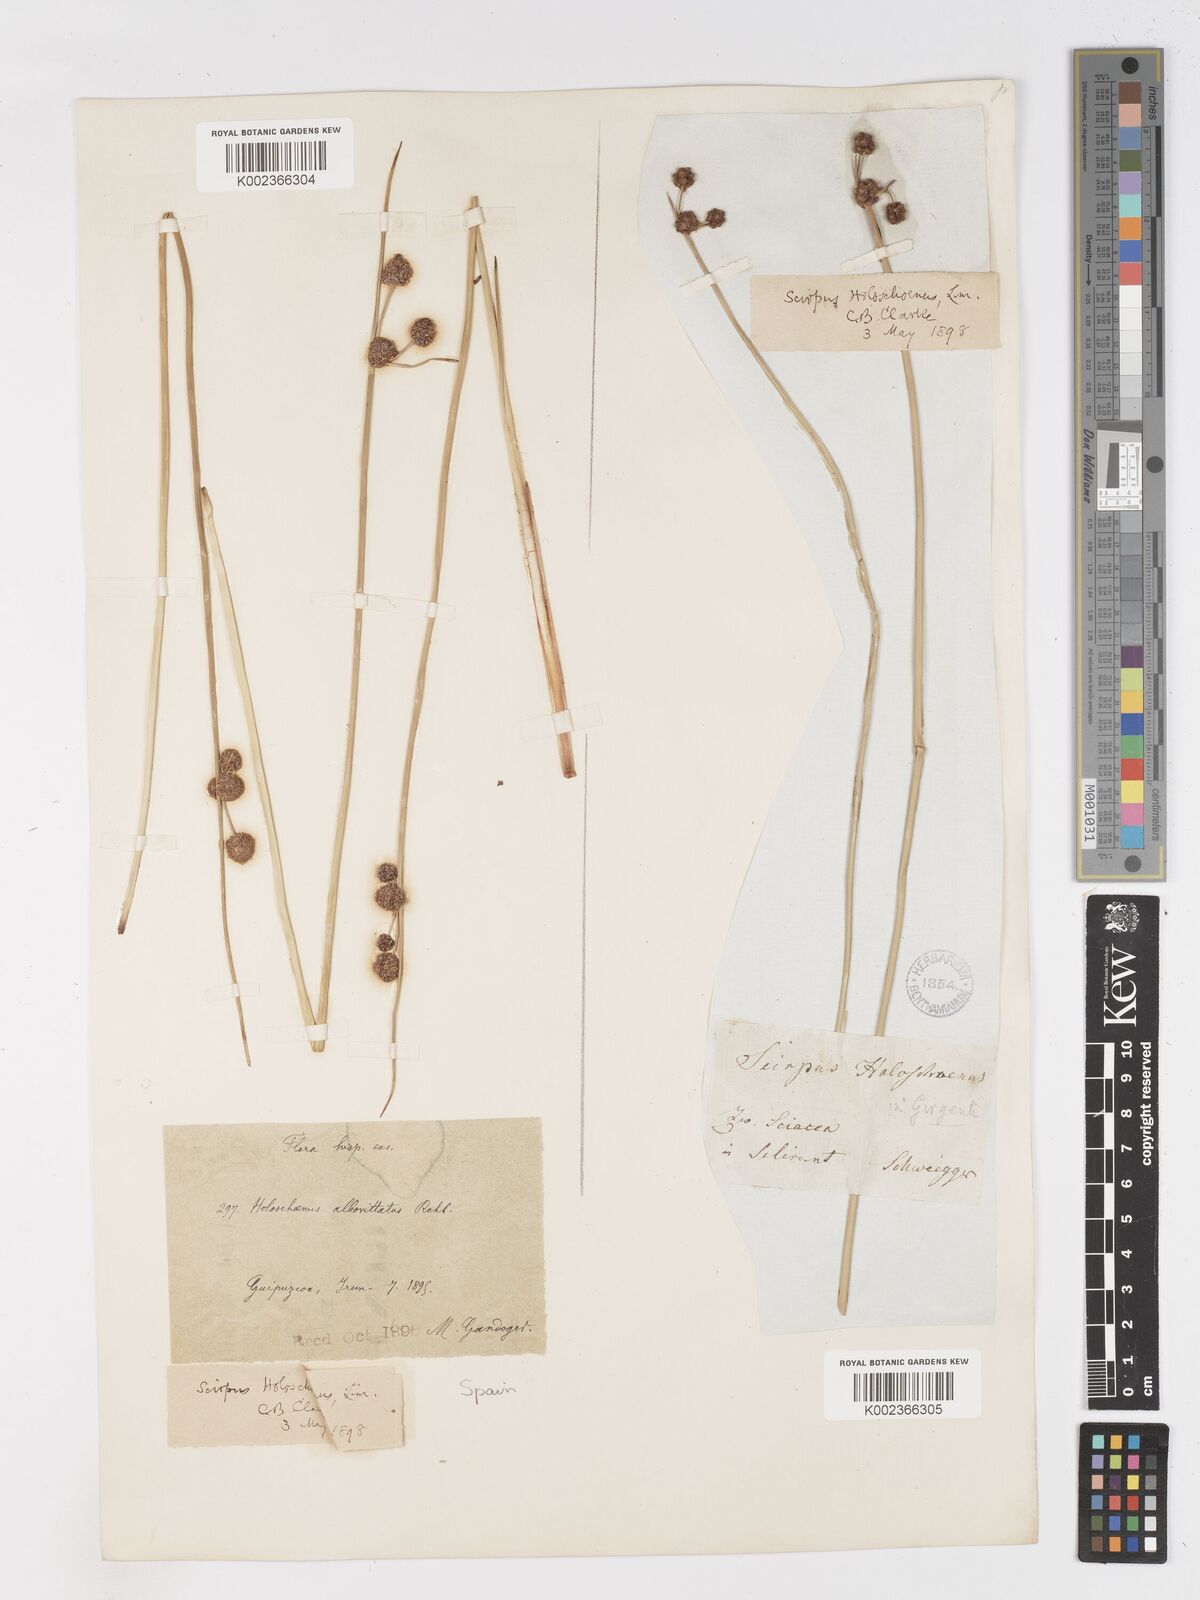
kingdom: Plantae
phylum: Tracheophyta
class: Liliopsida
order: Poales
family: Cyperaceae
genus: Scirpoides
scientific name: Scirpoides holoschoenus
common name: Round-headed club-rush
